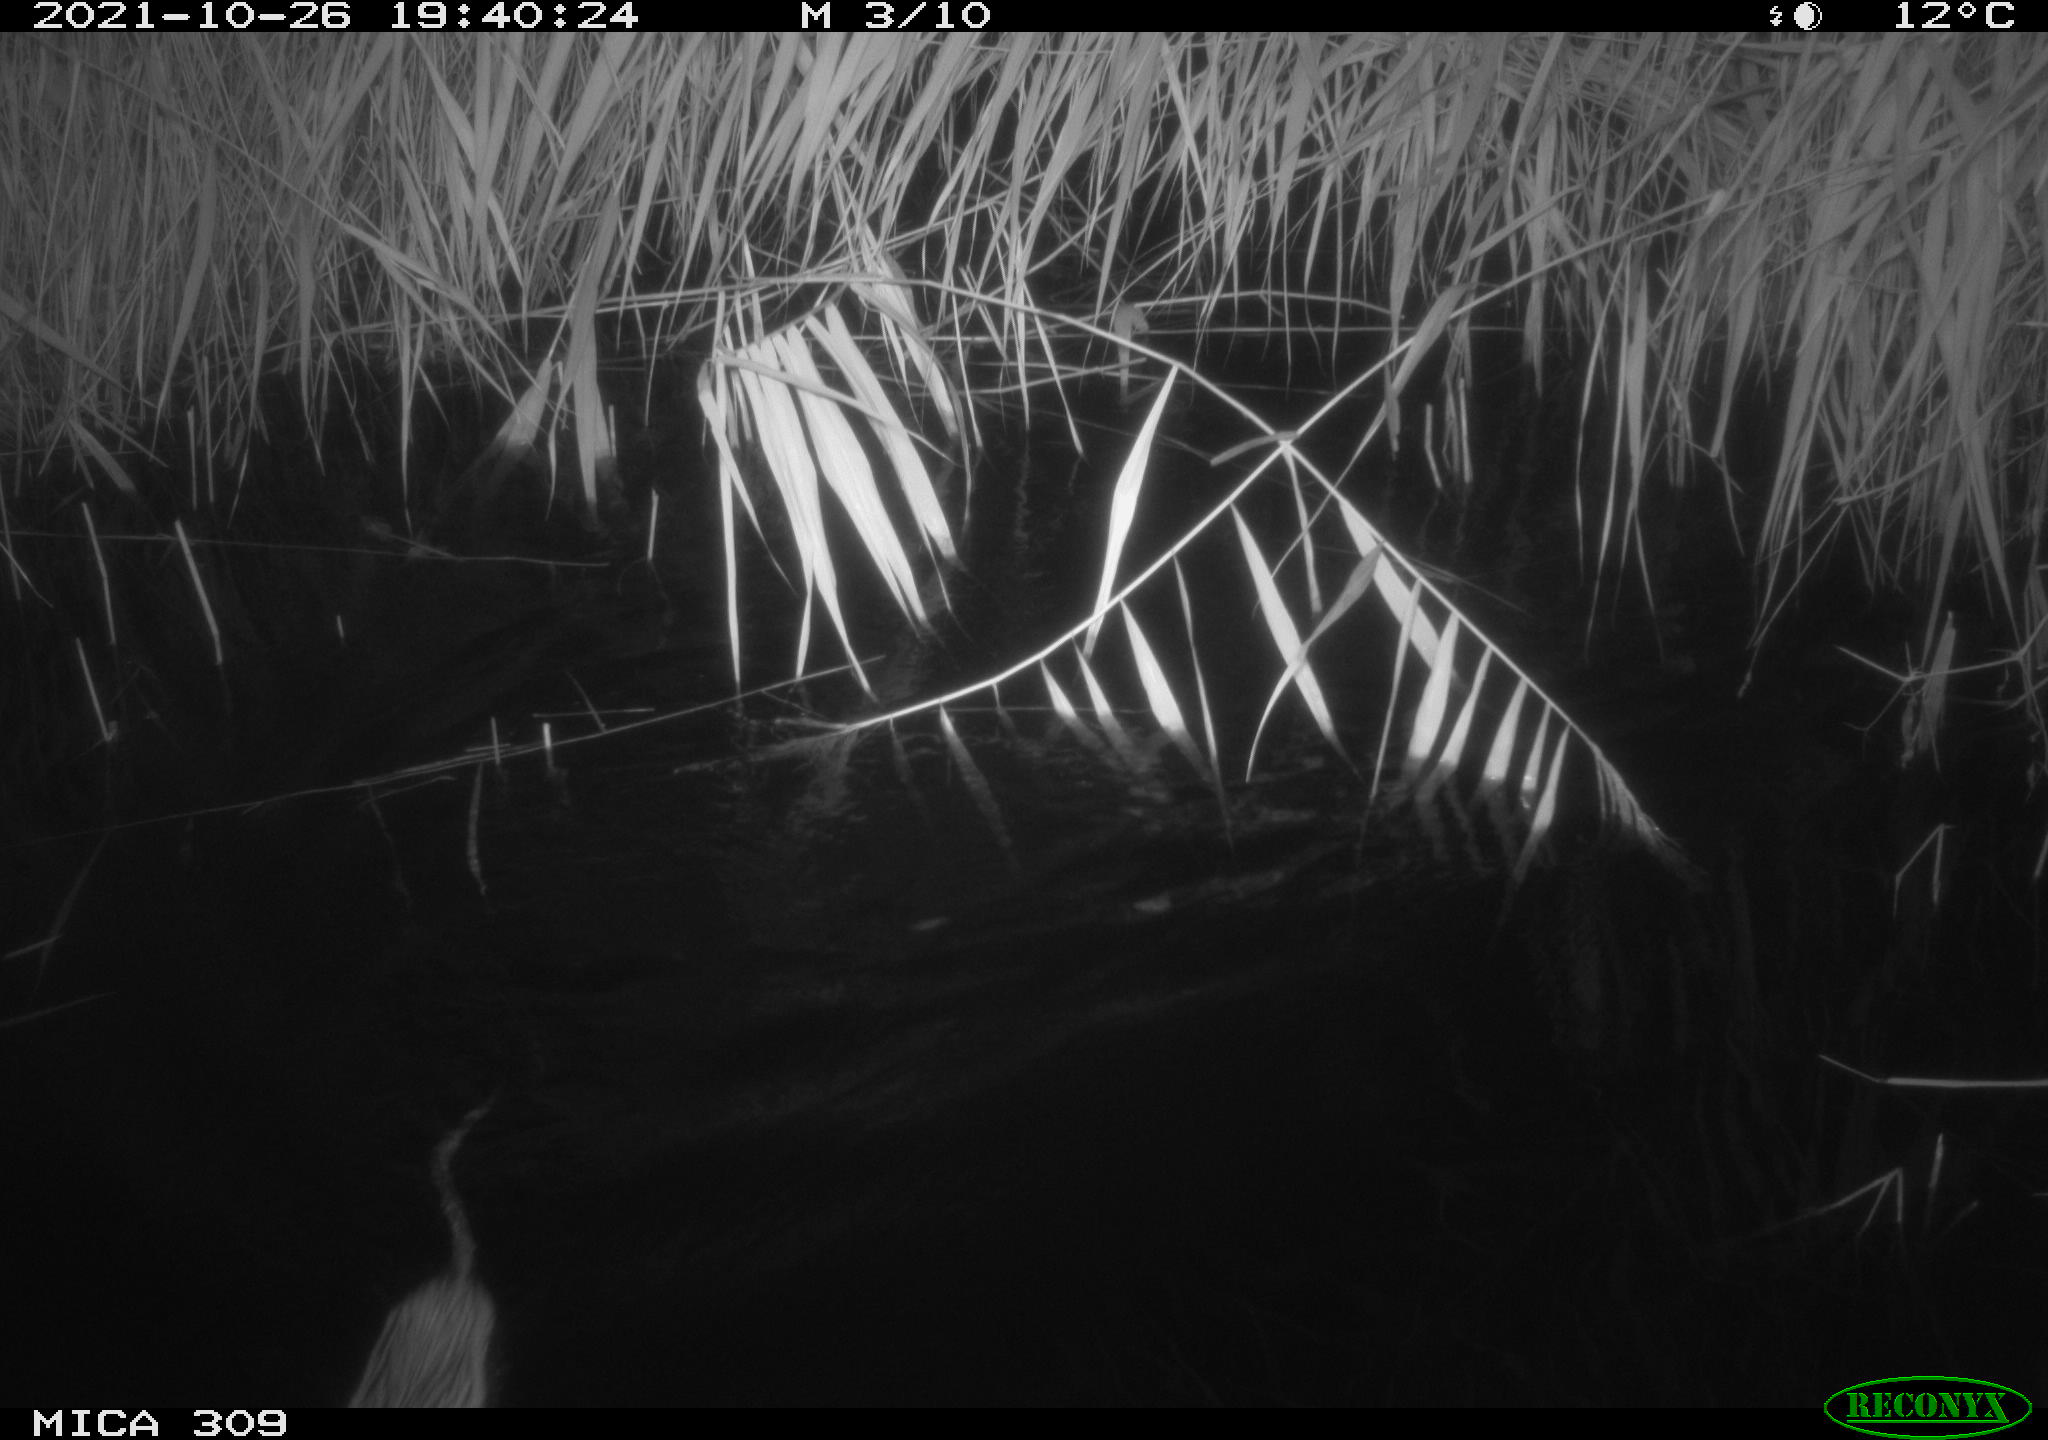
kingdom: Animalia
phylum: Chordata
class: Mammalia
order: Rodentia
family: Cricetidae
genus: Ondatra
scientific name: Ondatra zibethicus
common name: Muskrat
